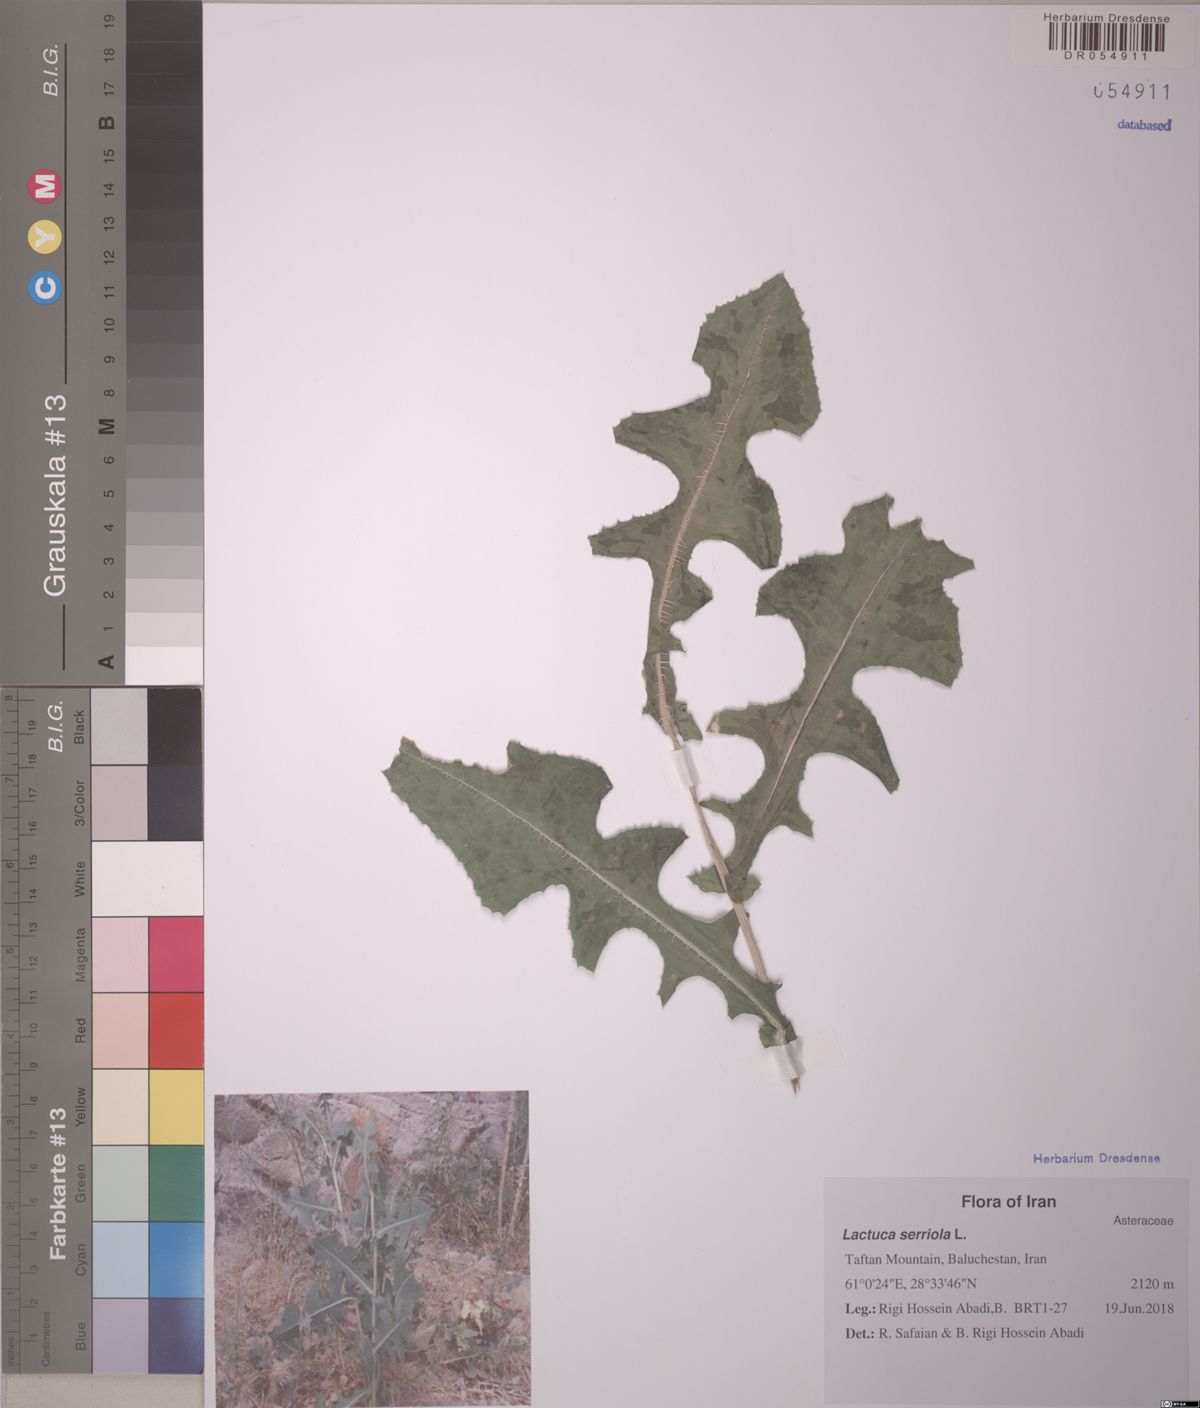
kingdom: Plantae
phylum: Tracheophyta
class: Magnoliopsida
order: Asterales
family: Asteraceae
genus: Lactuca
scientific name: Lactuca serriola
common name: Prickly lettuce
